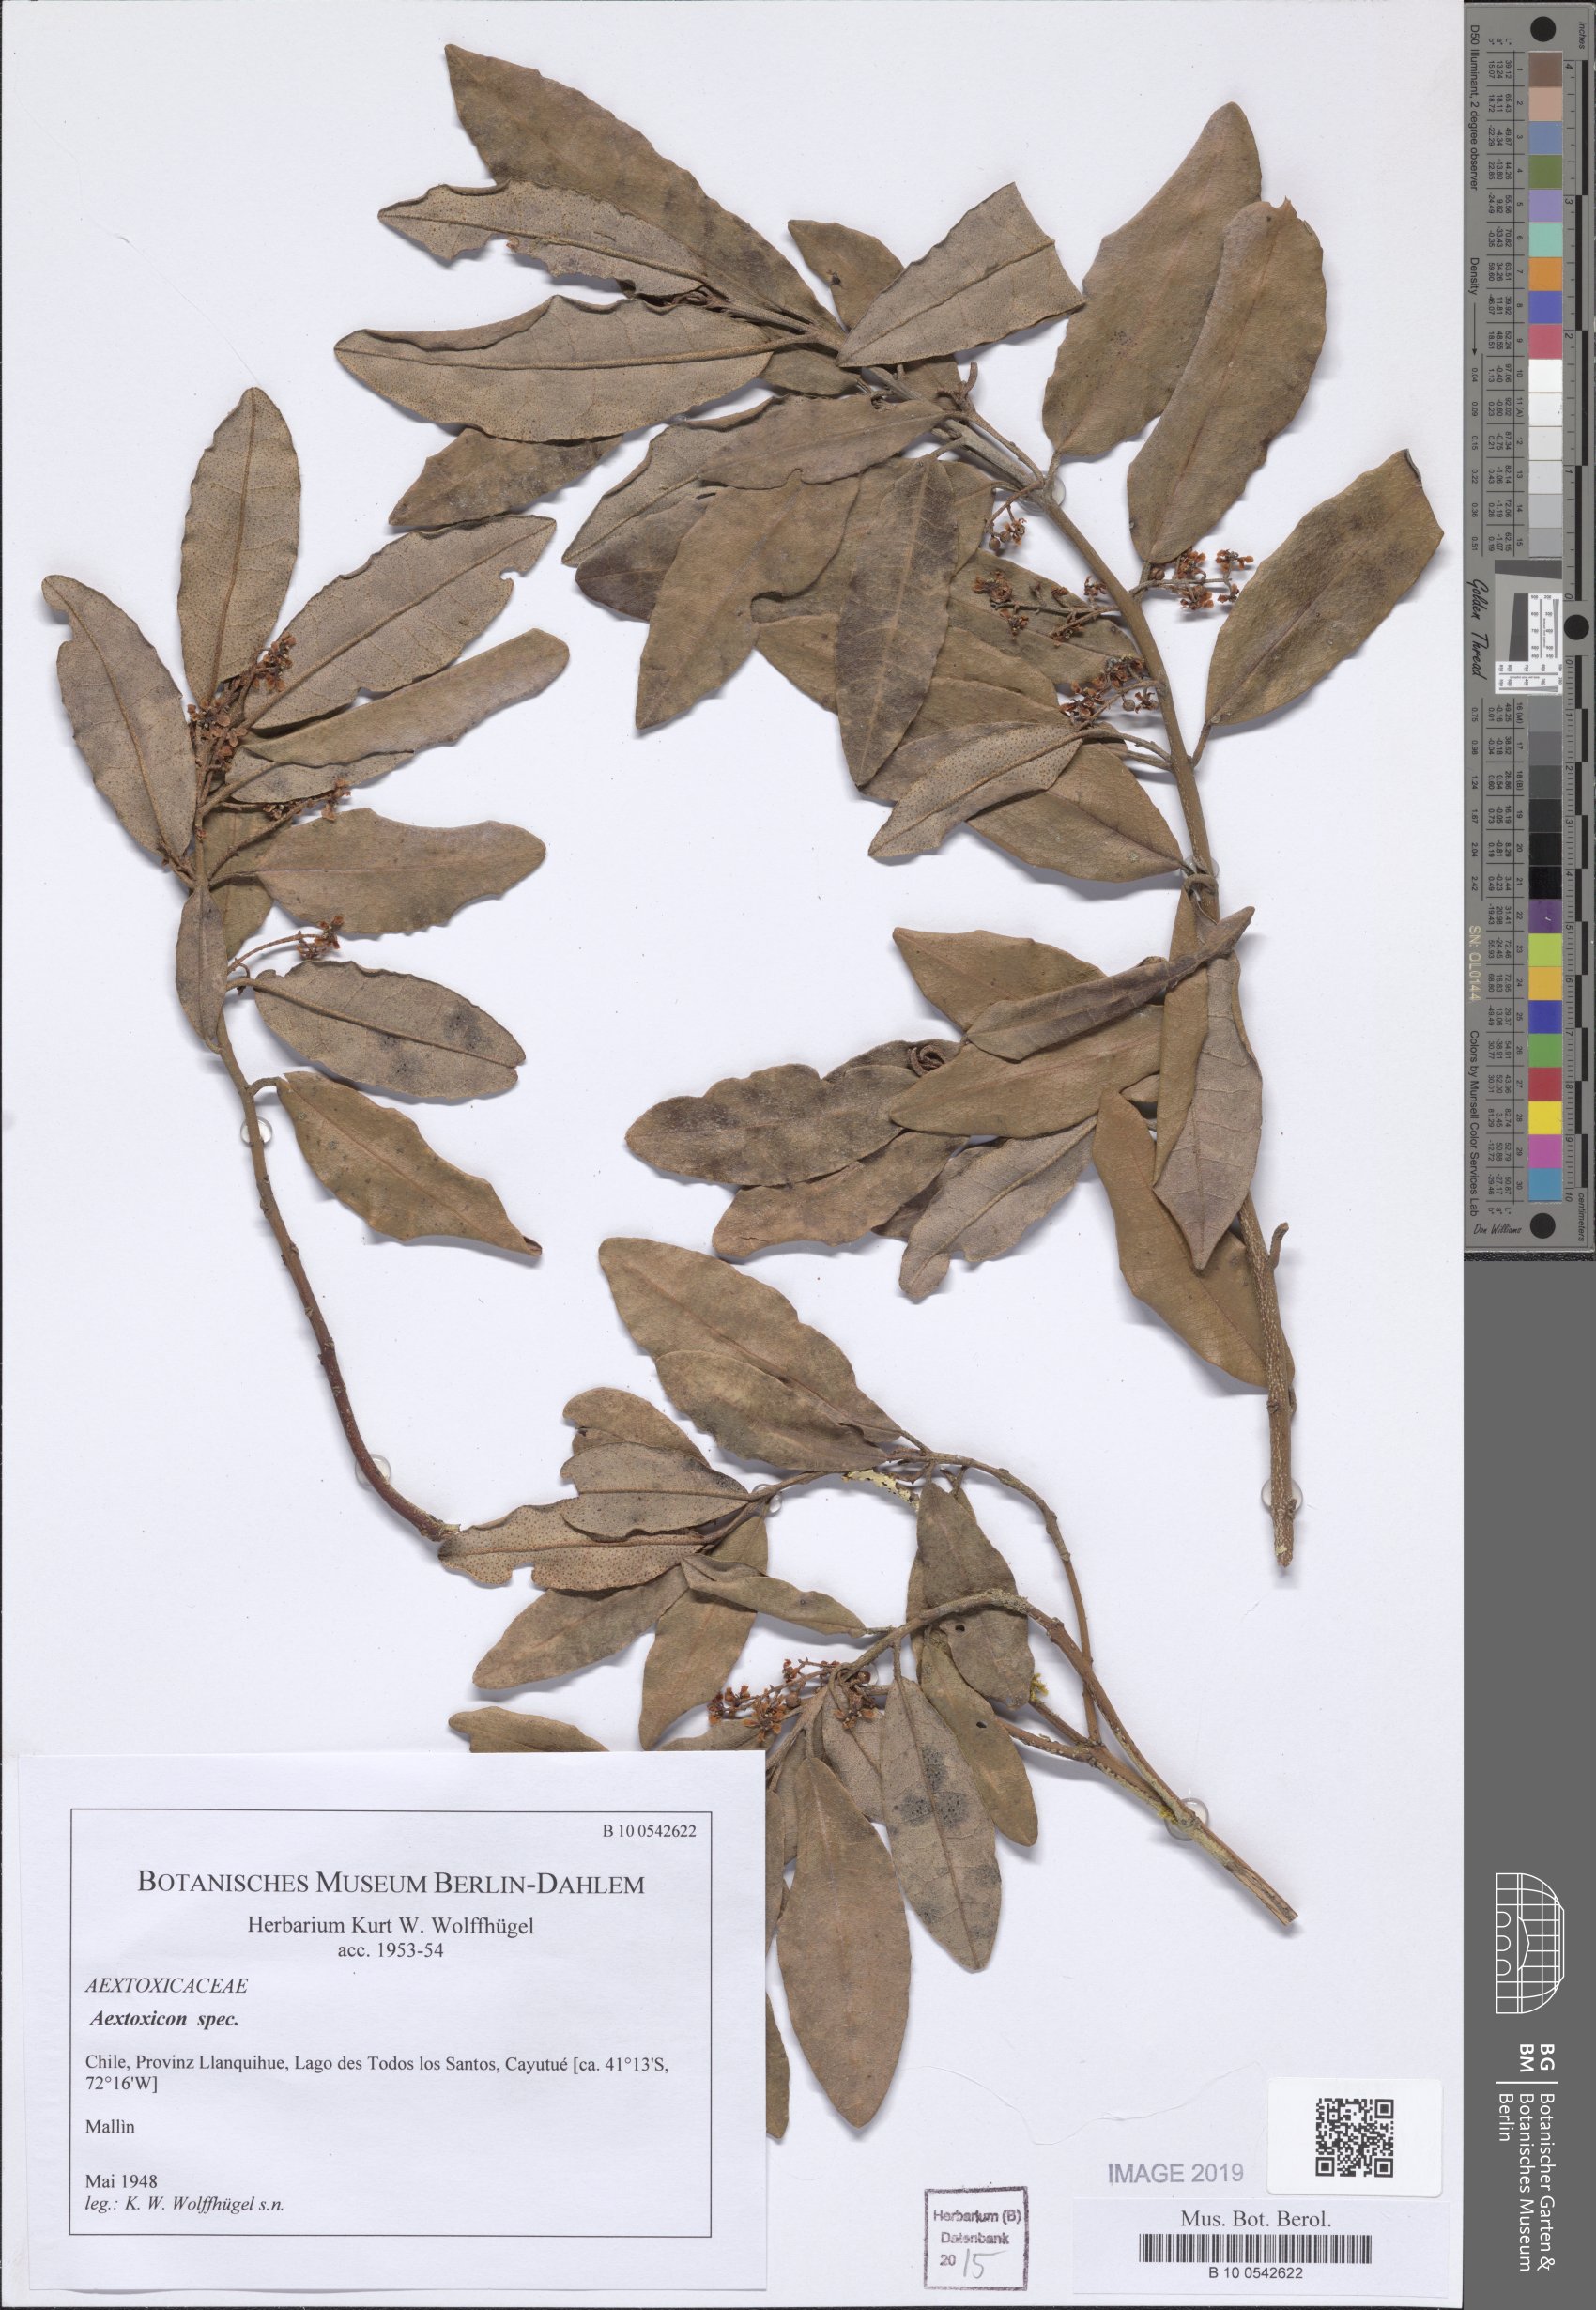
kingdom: Plantae
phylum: Tracheophyta
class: Magnoliopsida
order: Berberidopsidales
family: Aextoxicaceae
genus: Aextoxicon
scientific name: Aextoxicon
